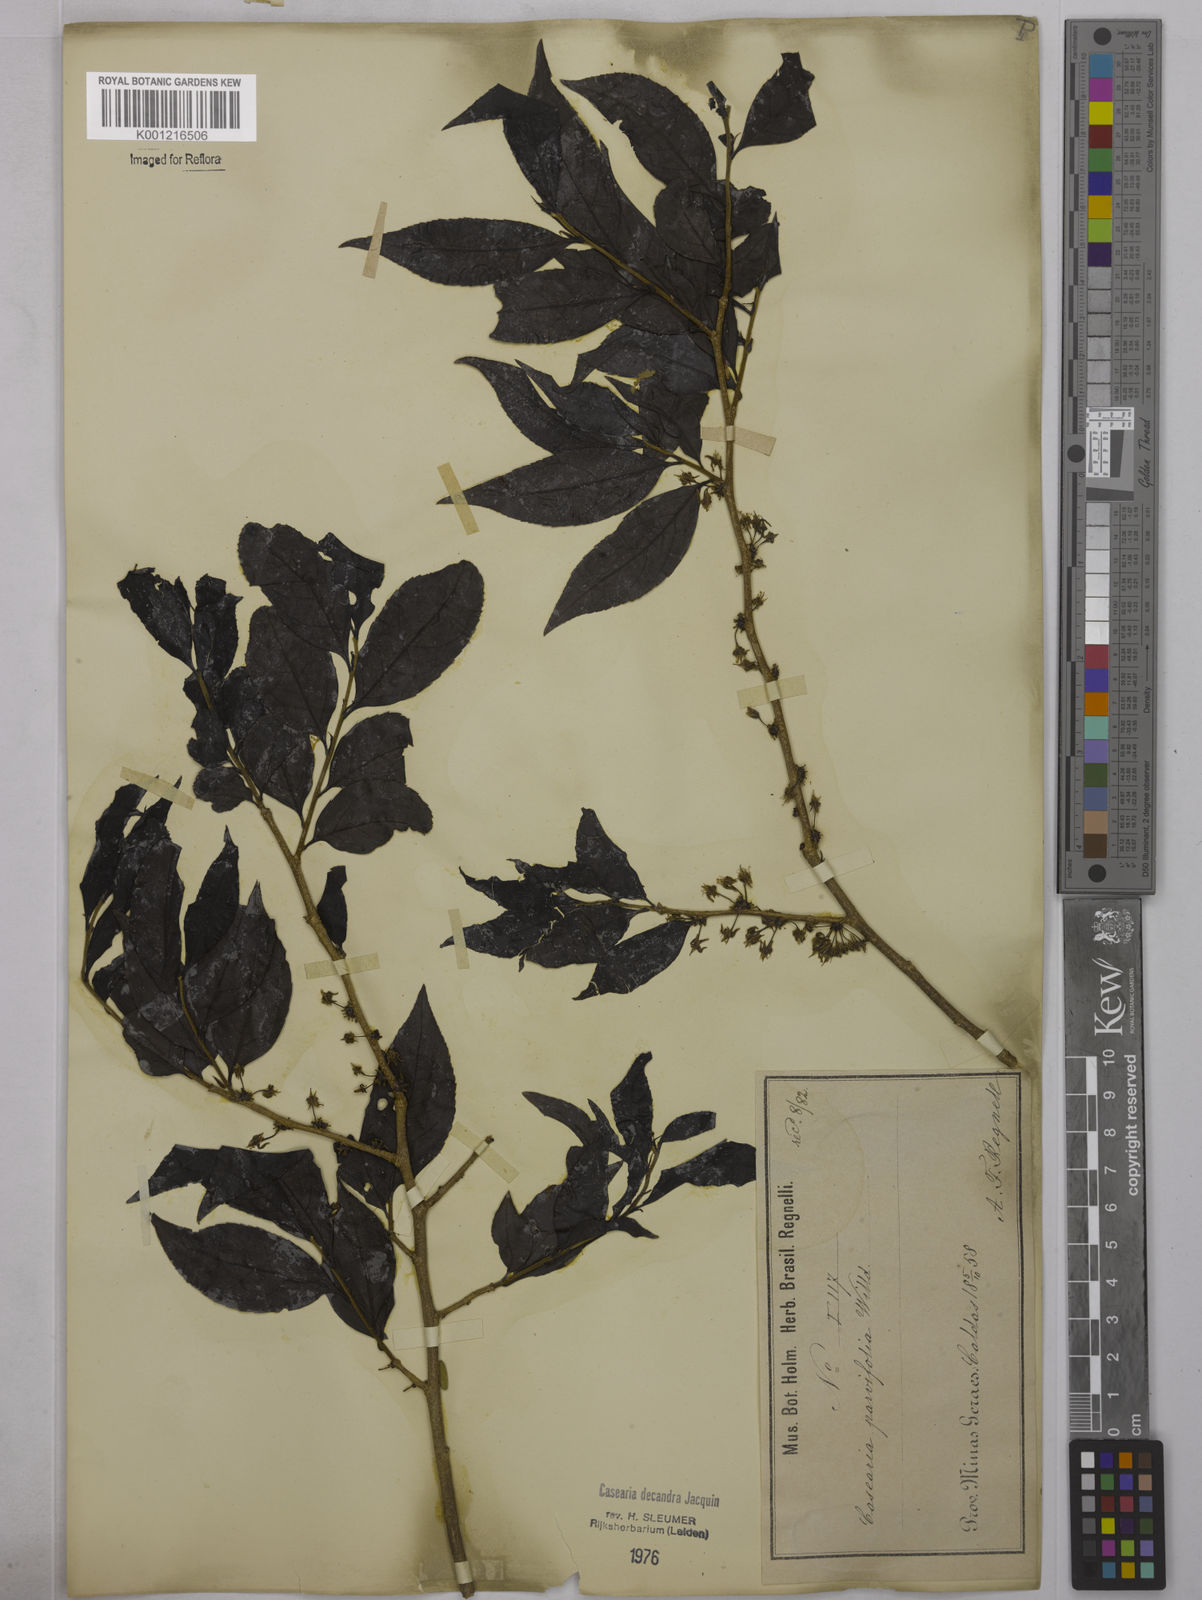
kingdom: Plantae
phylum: Tracheophyta
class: Magnoliopsida
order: Malpighiales
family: Salicaceae
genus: Casearia
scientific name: Casearia decandra
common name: Crack open
